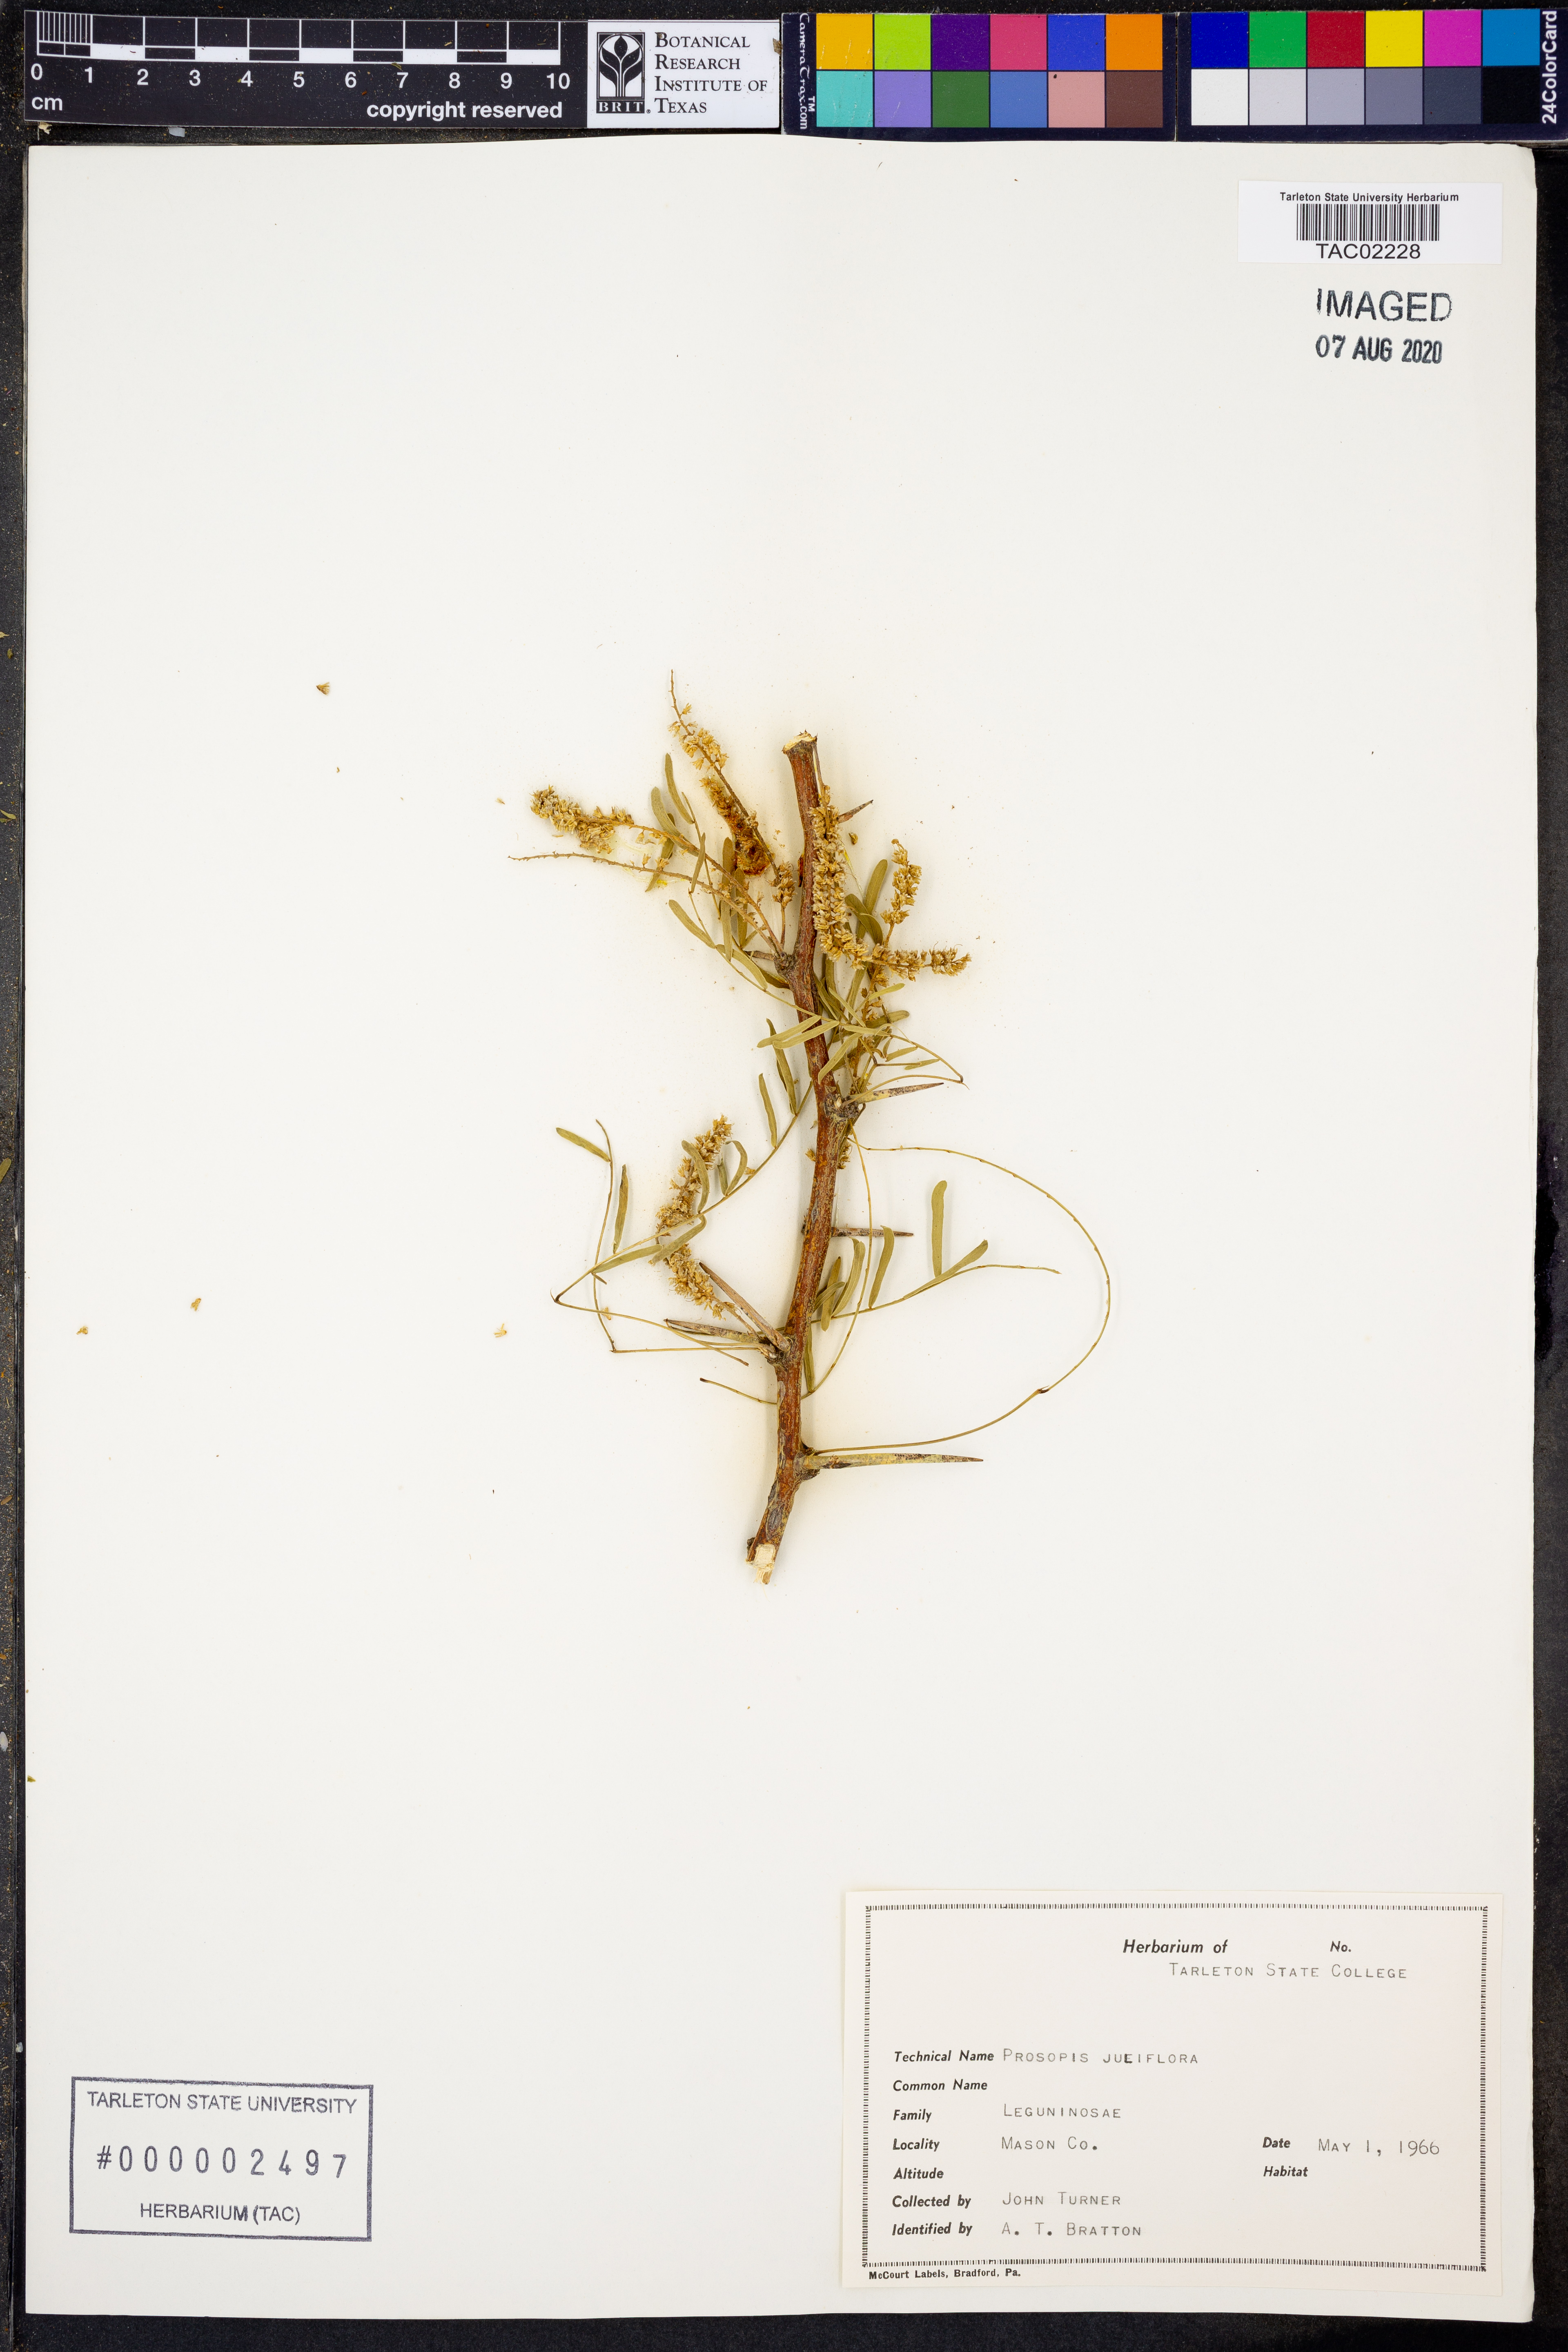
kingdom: Plantae
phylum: Tracheophyta
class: Magnoliopsida
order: Fabales
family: Fabaceae
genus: Prosopis
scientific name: Prosopis juliflora
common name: Mesquite
